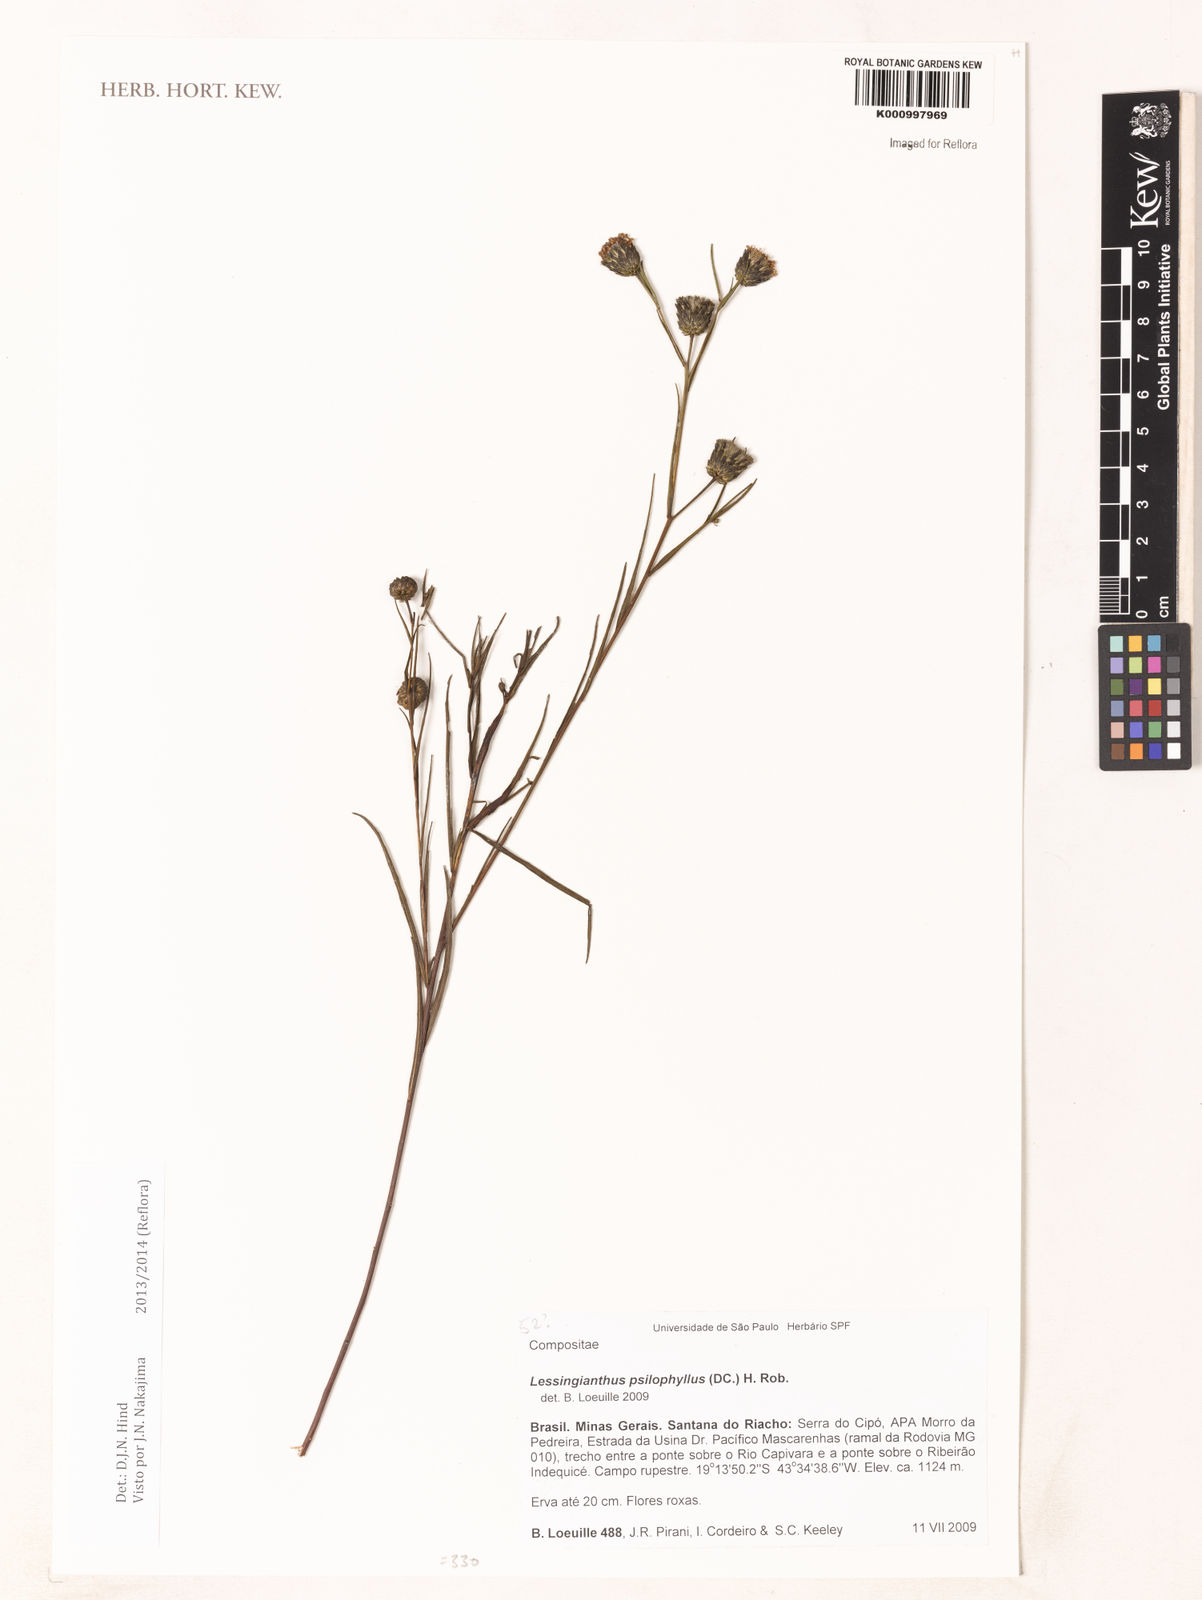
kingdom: Plantae
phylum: Tracheophyta
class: Magnoliopsida
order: Asterales
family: Asteraceae
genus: Lessingianthus
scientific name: Lessingianthus brevifolius
